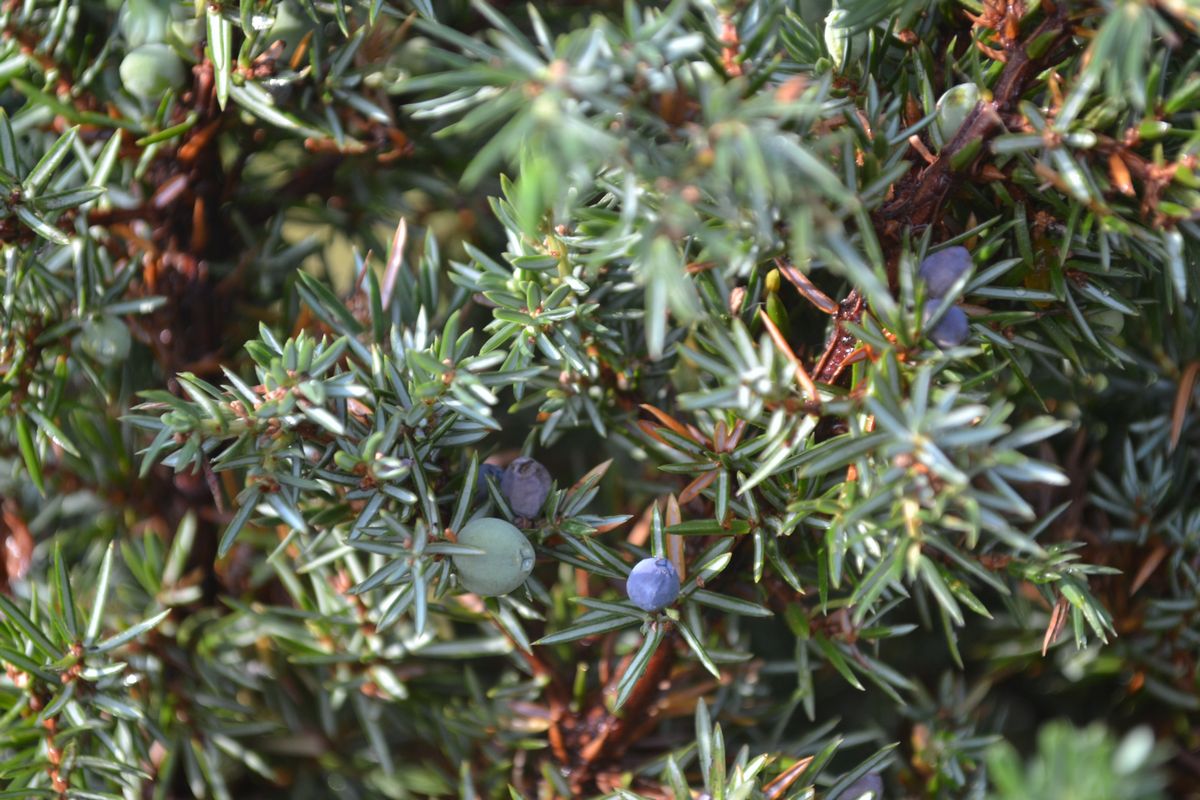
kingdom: Plantae
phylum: Tracheophyta
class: Pinopsida
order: Pinales
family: Cupressaceae
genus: Juniperus
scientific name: Juniperus communis
